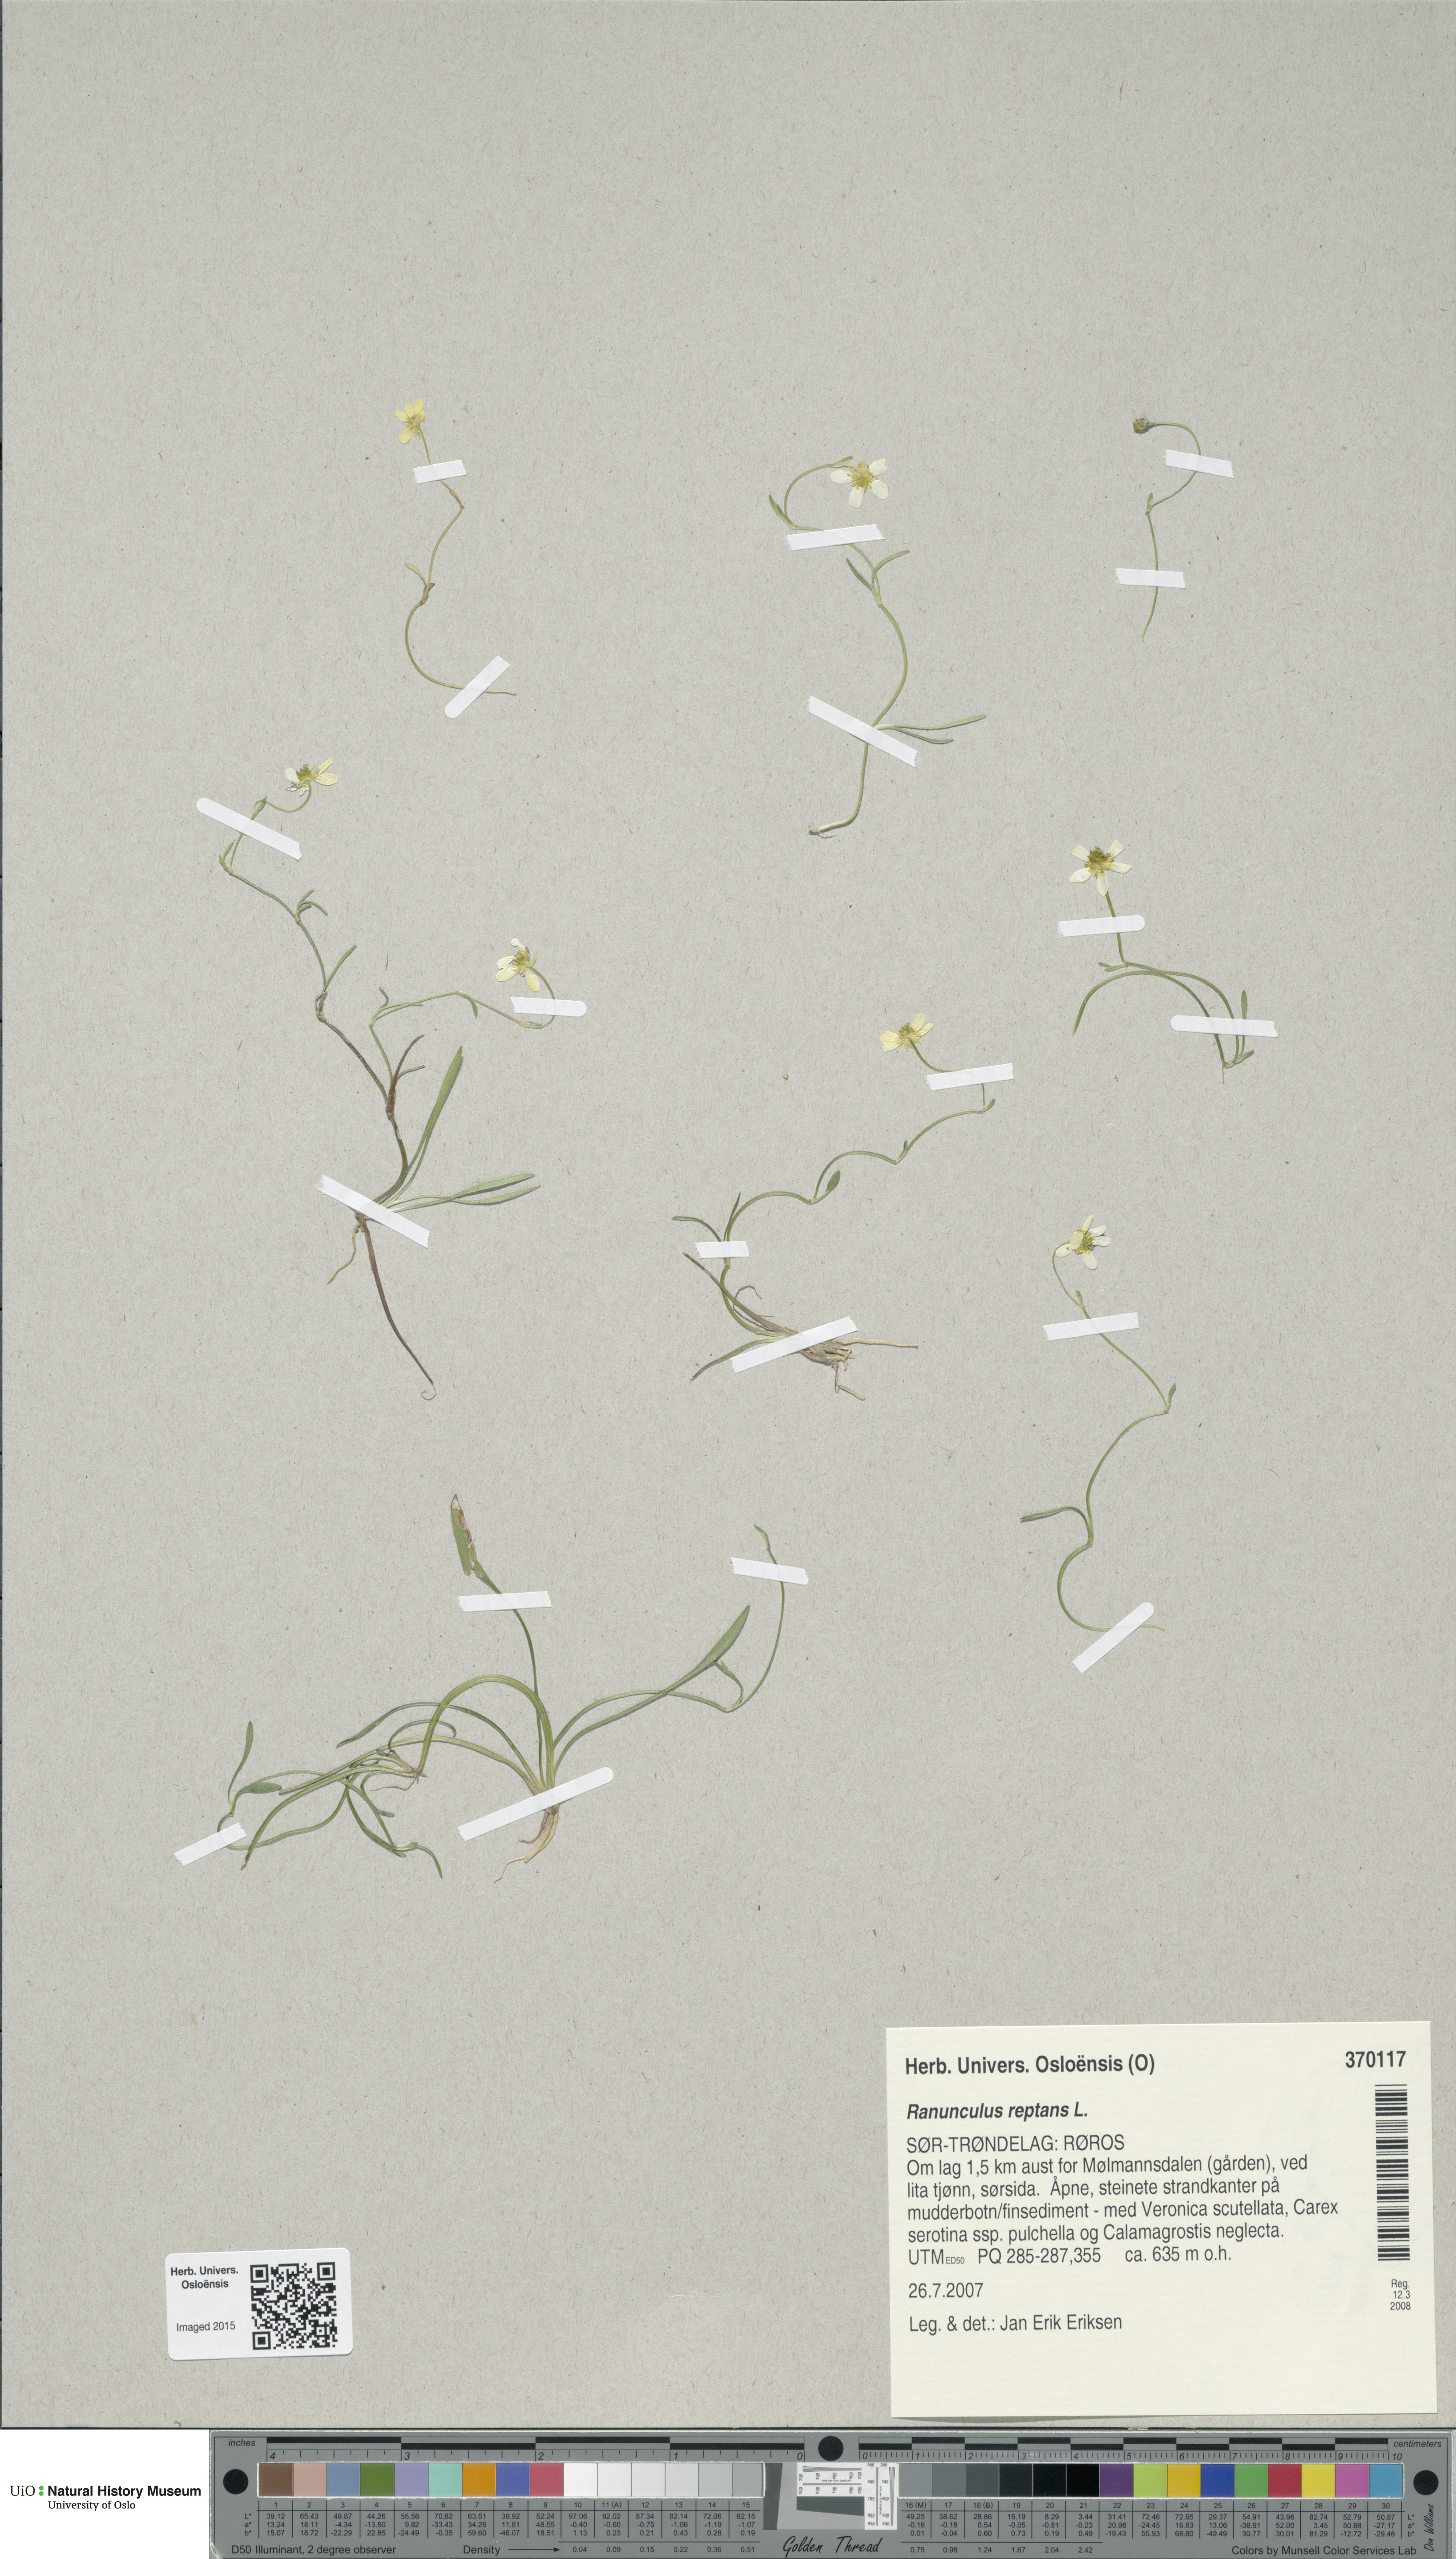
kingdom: Plantae
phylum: Tracheophyta
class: Magnoliopsida
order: Ranunculales
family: Ranunculaceae
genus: Ranunculus
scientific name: Ranunculus reptans
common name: Creeping spearwort
